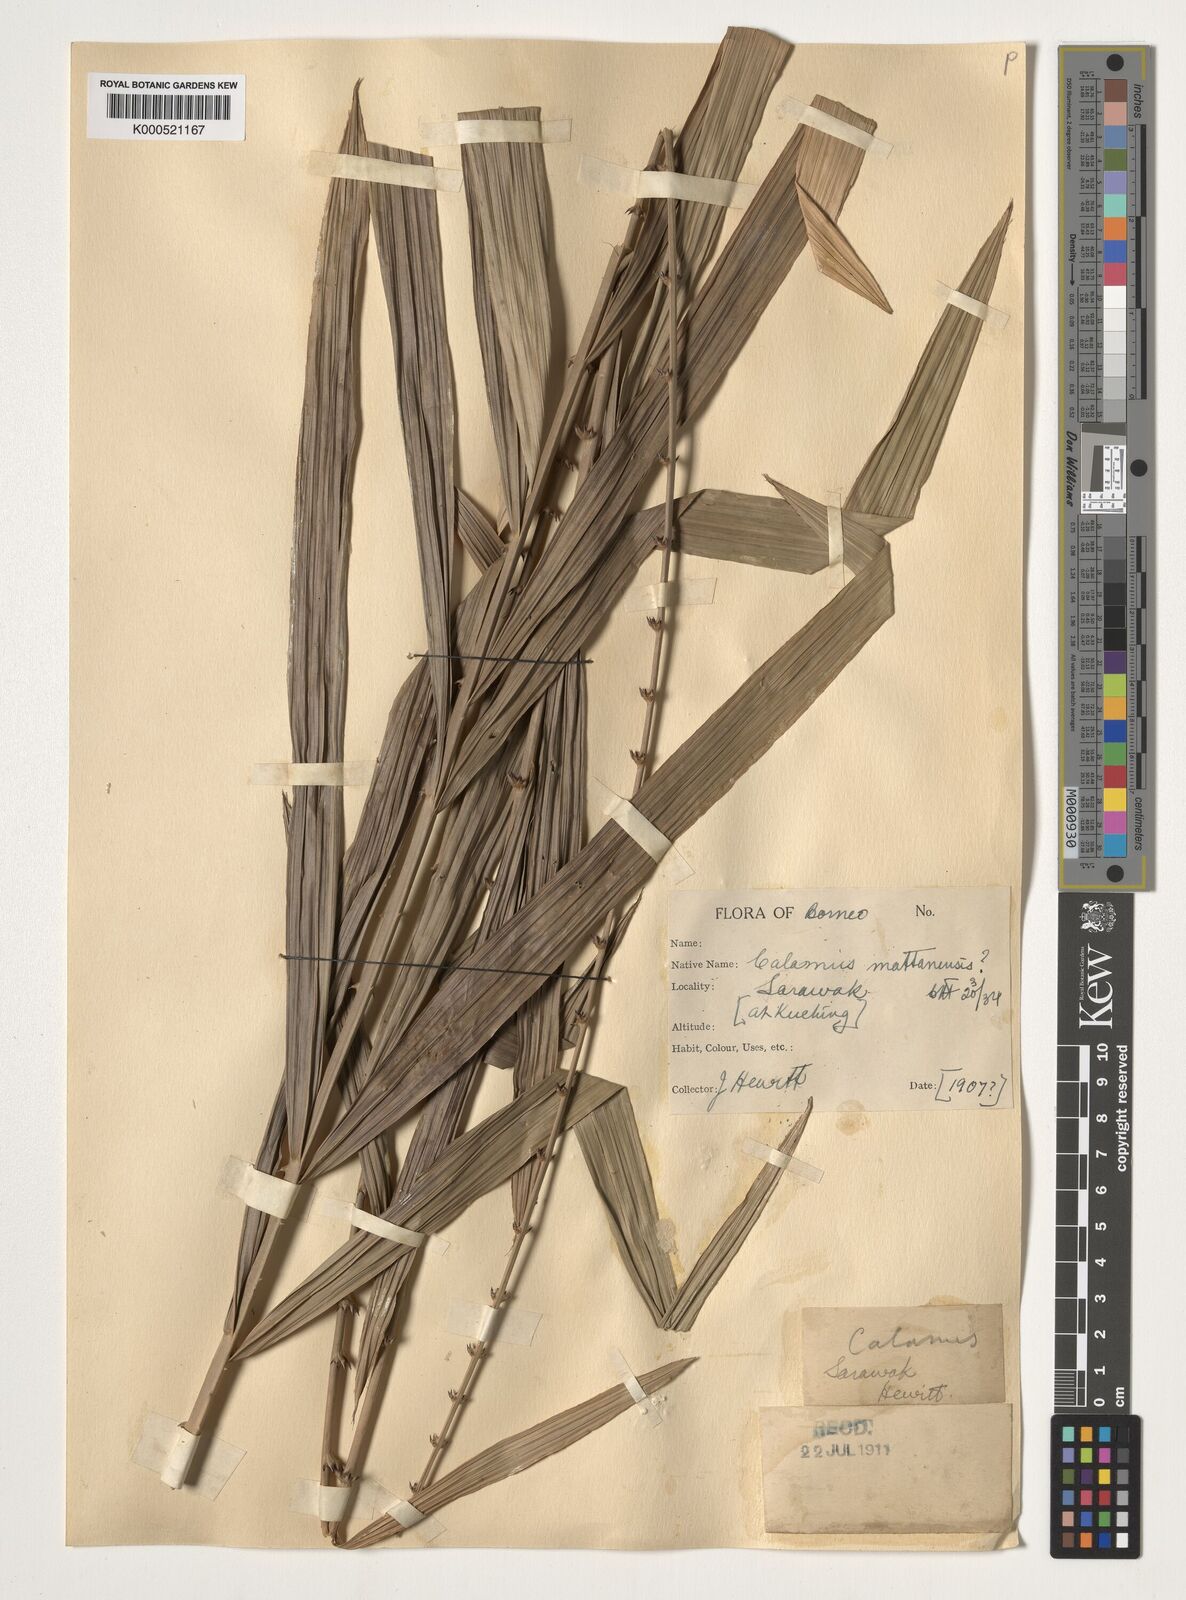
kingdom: Plantae
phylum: Tracheophyta
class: Liliopsida
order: Arecales
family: Arecaceae
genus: Calamus
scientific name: Calamus
